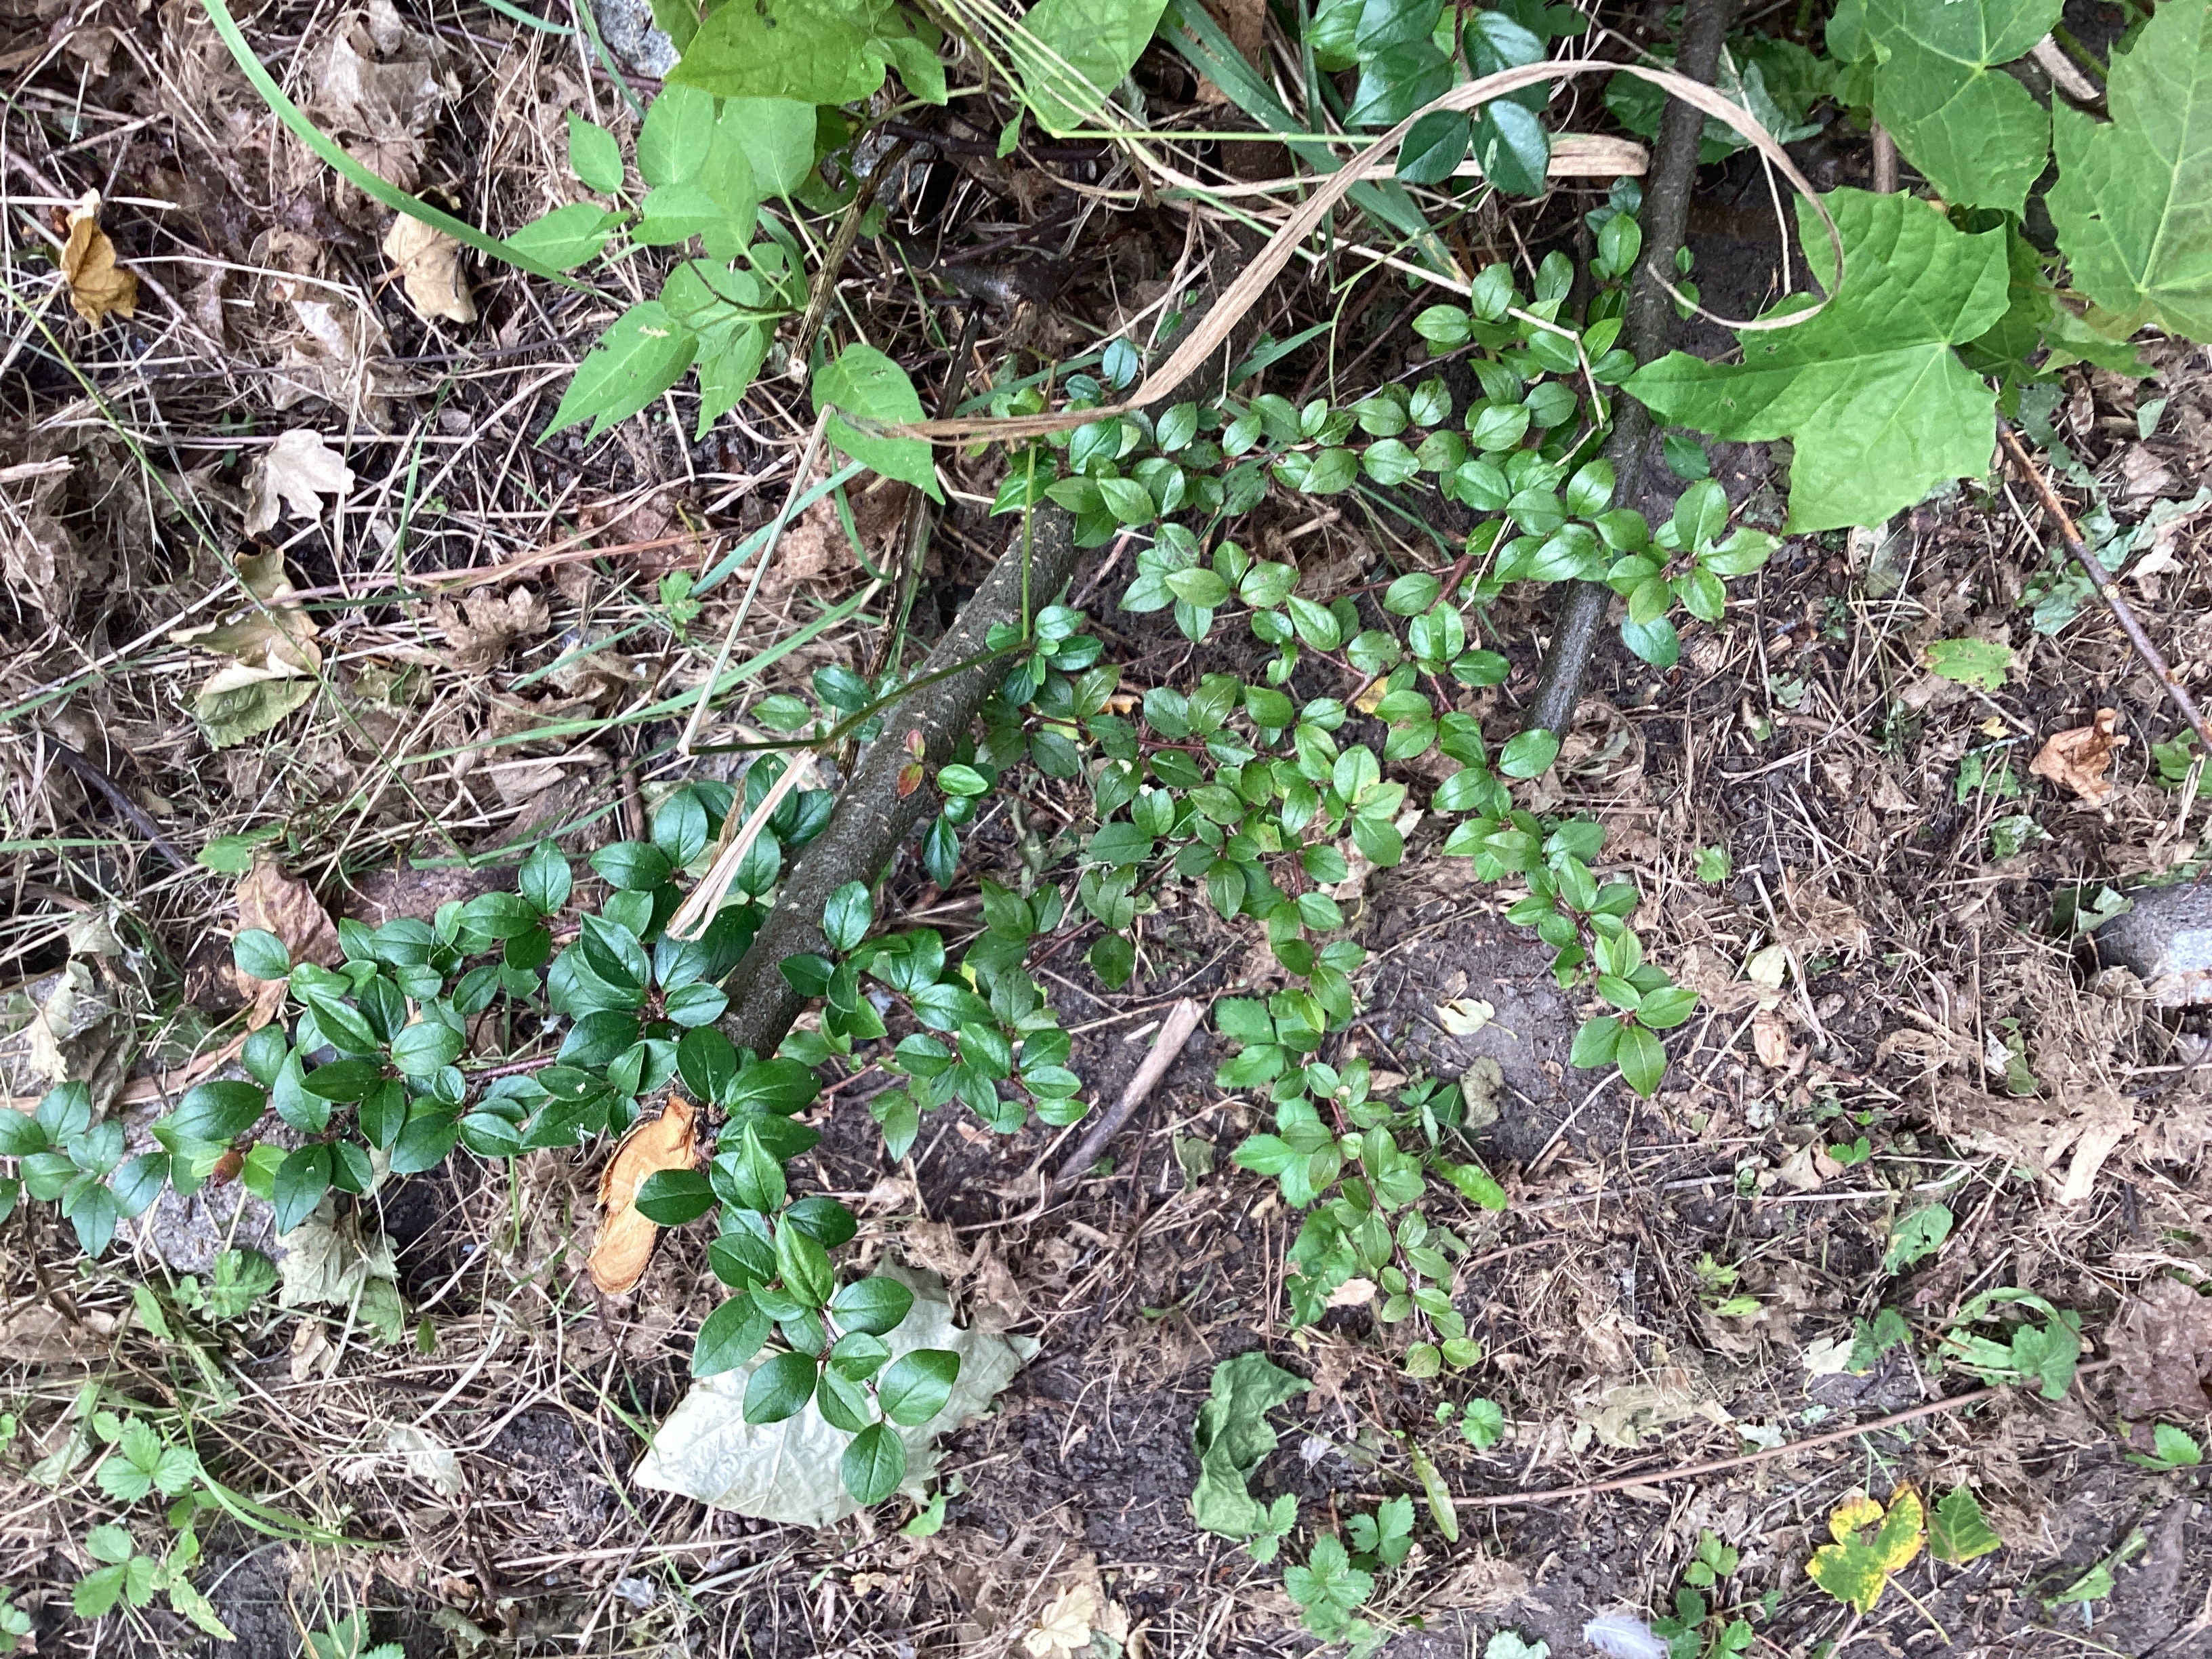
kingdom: Plantae
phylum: Tracheophyta
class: Magnoliopsida
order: Rosales
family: Rosaceae
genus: Cotoneaster
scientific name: Cotoneaster divaricatus
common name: sprikemispel
